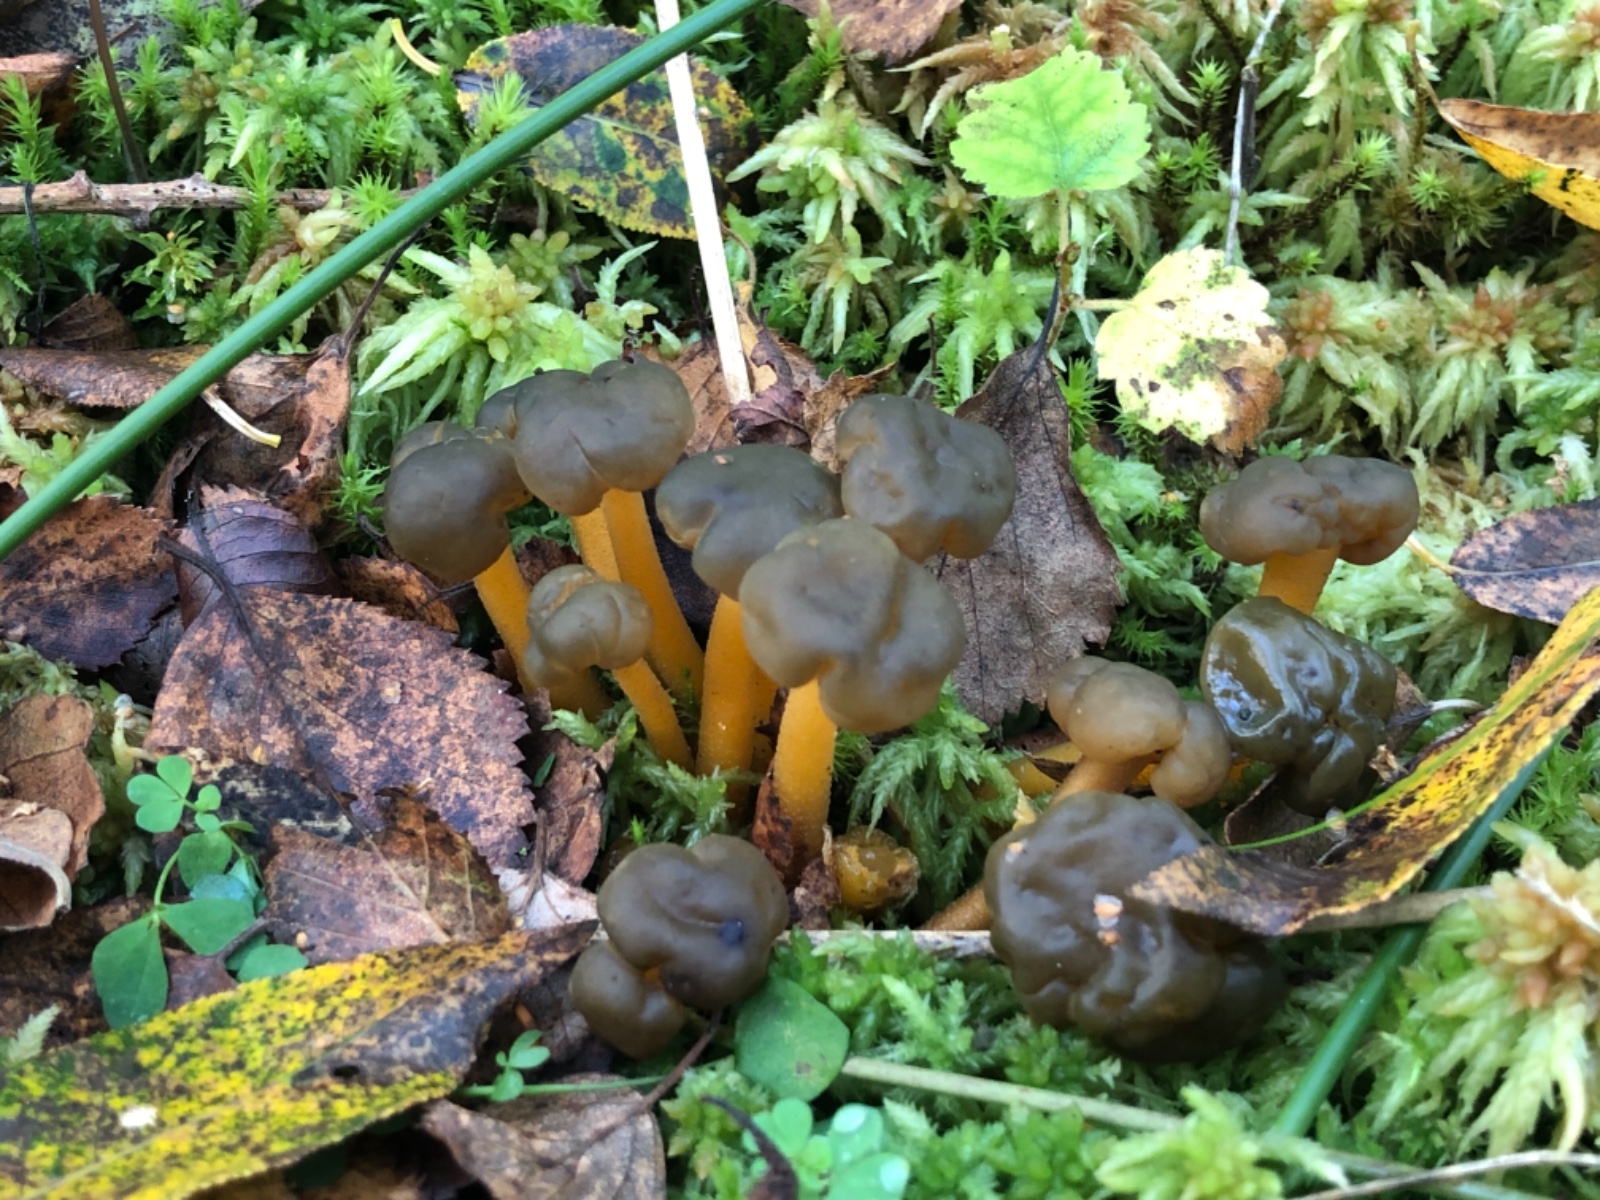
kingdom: Fungi
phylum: Ascomycota
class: Leotiomycetes
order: Leotiales
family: Leotiaceae
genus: Leotia
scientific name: Leotia lubrica
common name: ravsvamp
